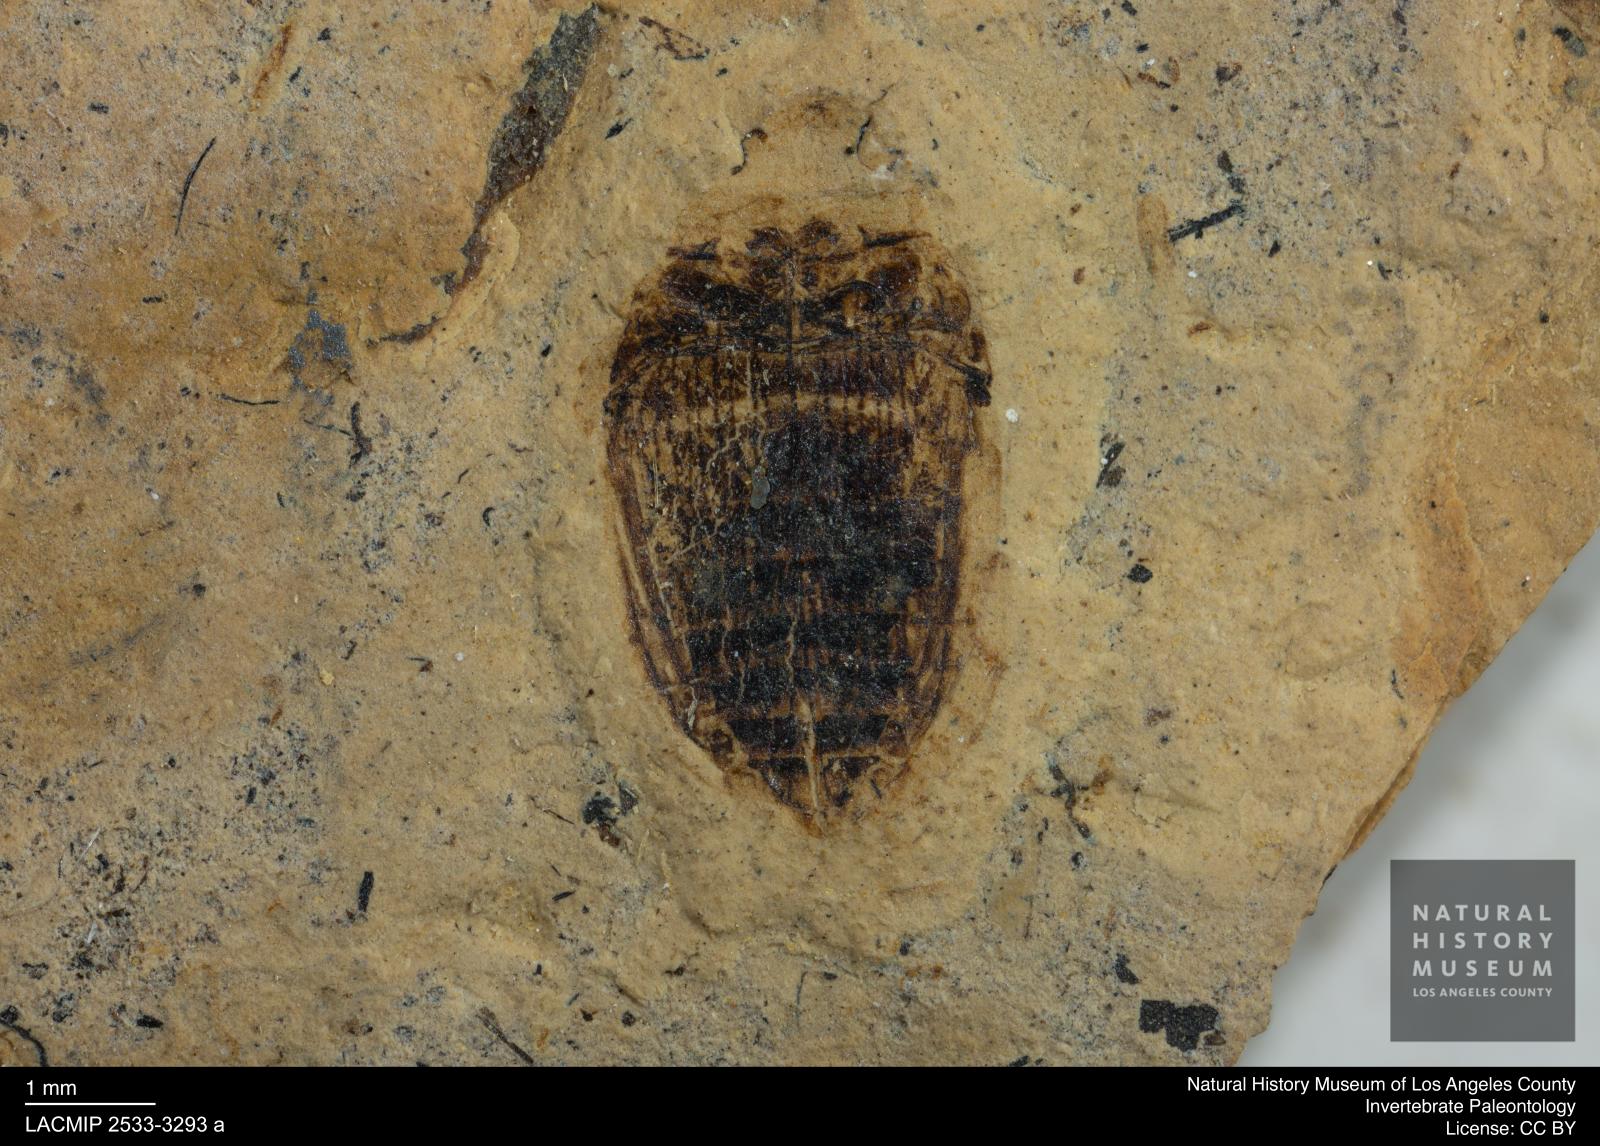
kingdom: Animalia
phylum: Arthropoda
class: Insecta
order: Coleoptera
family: Dytiscidae
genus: Laccophilus
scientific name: Laccophilus Palaeogyrinus strigatus
